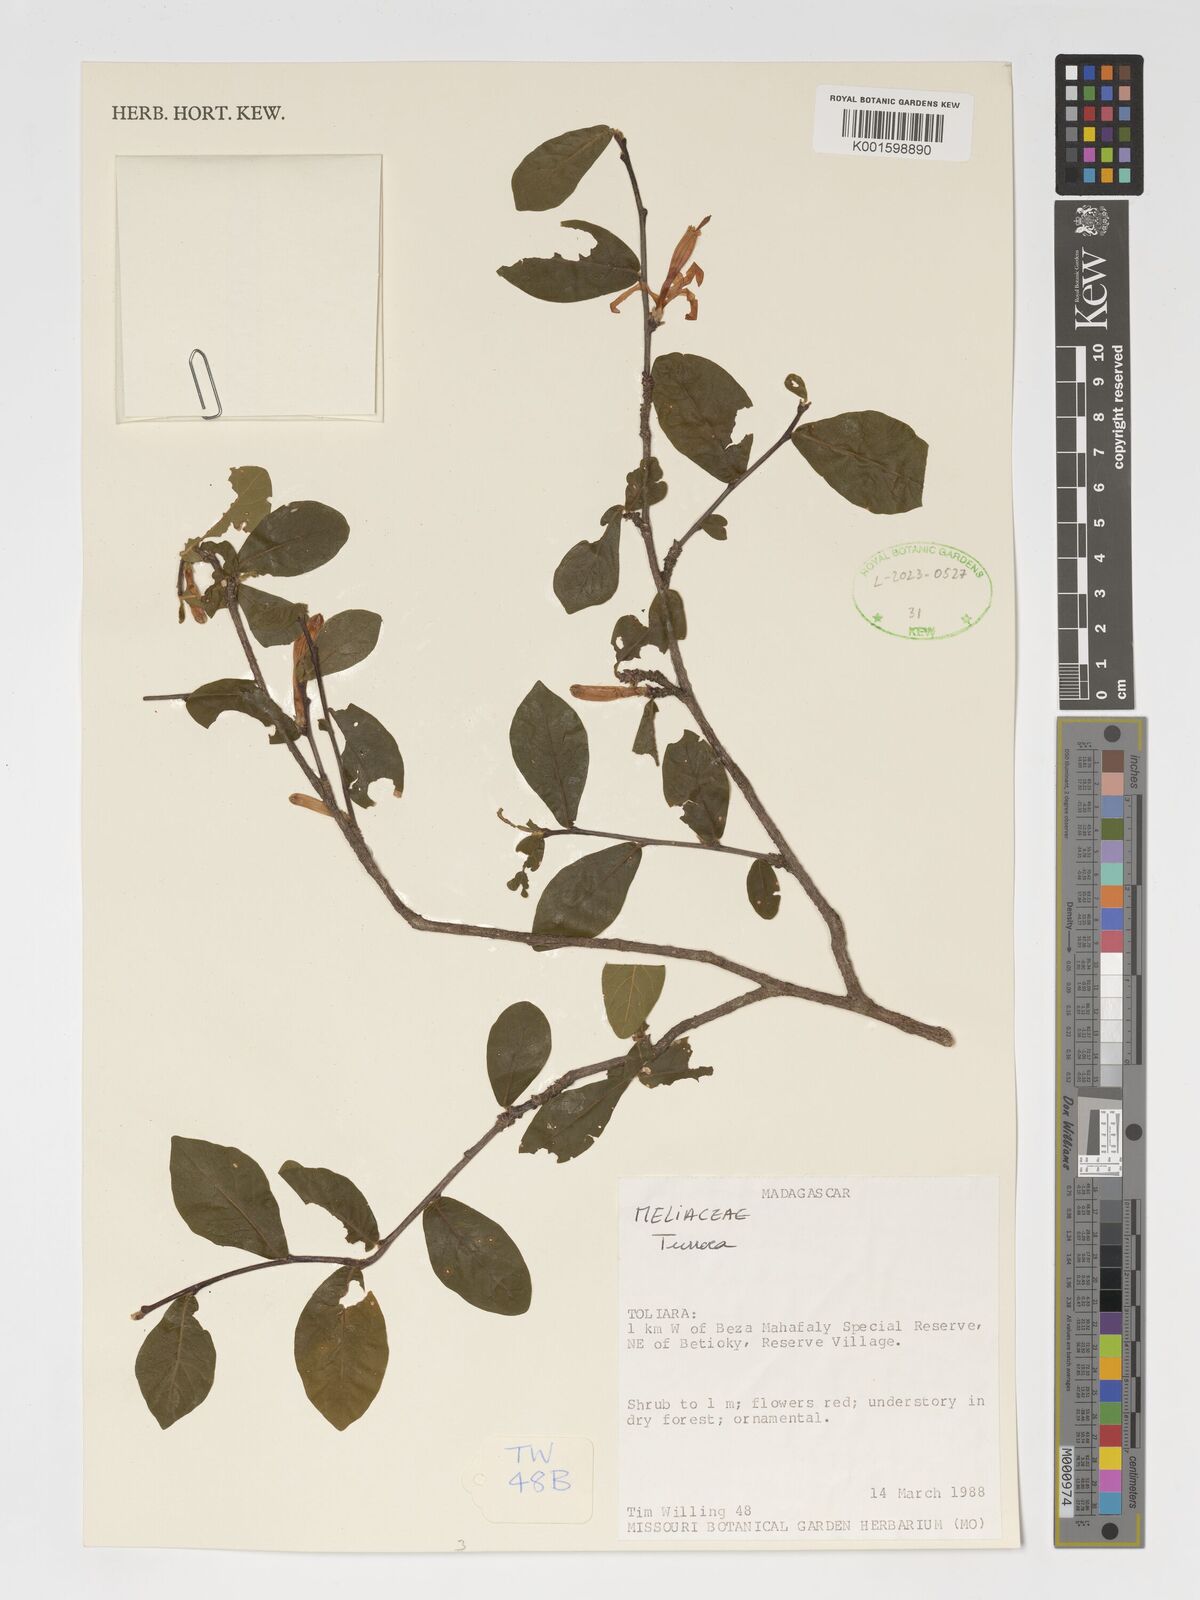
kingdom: Plantae
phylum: Tracheophyta
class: Magnoliopsida
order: Sapindales
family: Meliaceae
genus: Turraea
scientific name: Turraea
